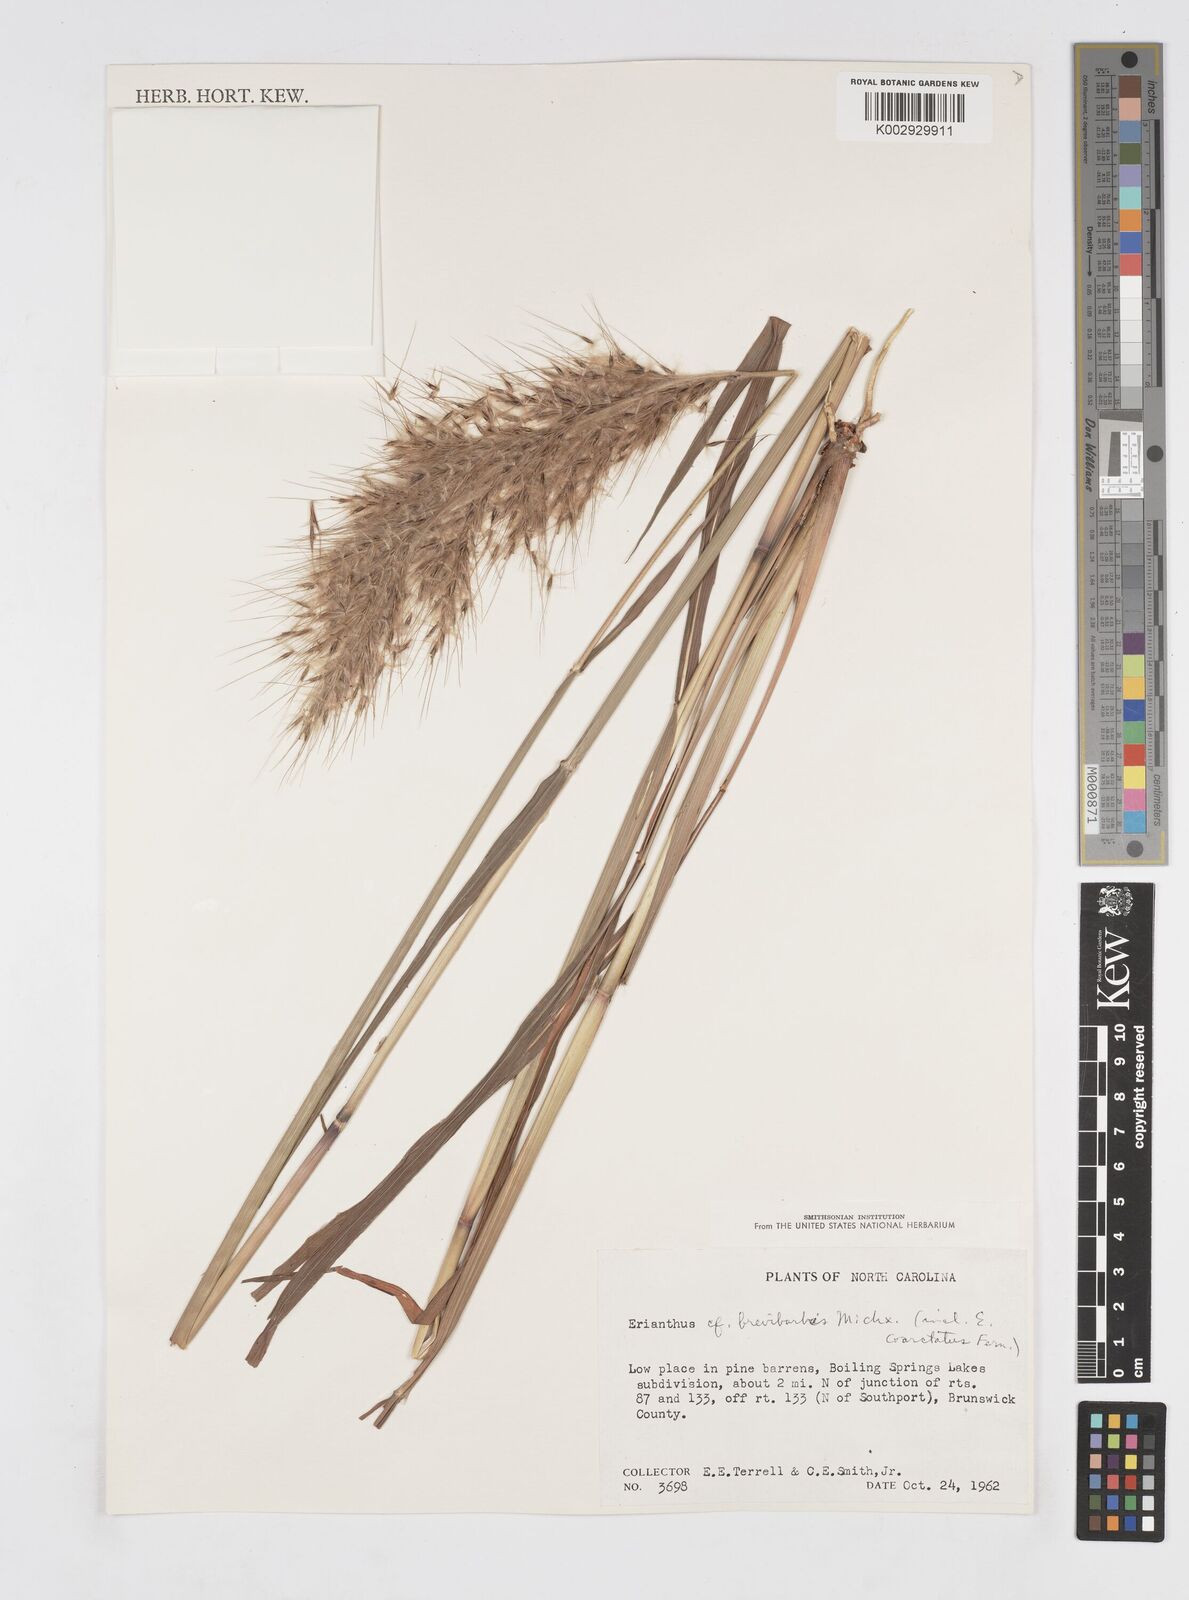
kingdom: Plantae
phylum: Tracheophyta
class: Liliopsida
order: Poales
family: Poaceae
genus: Saccharum
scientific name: Saccharum
